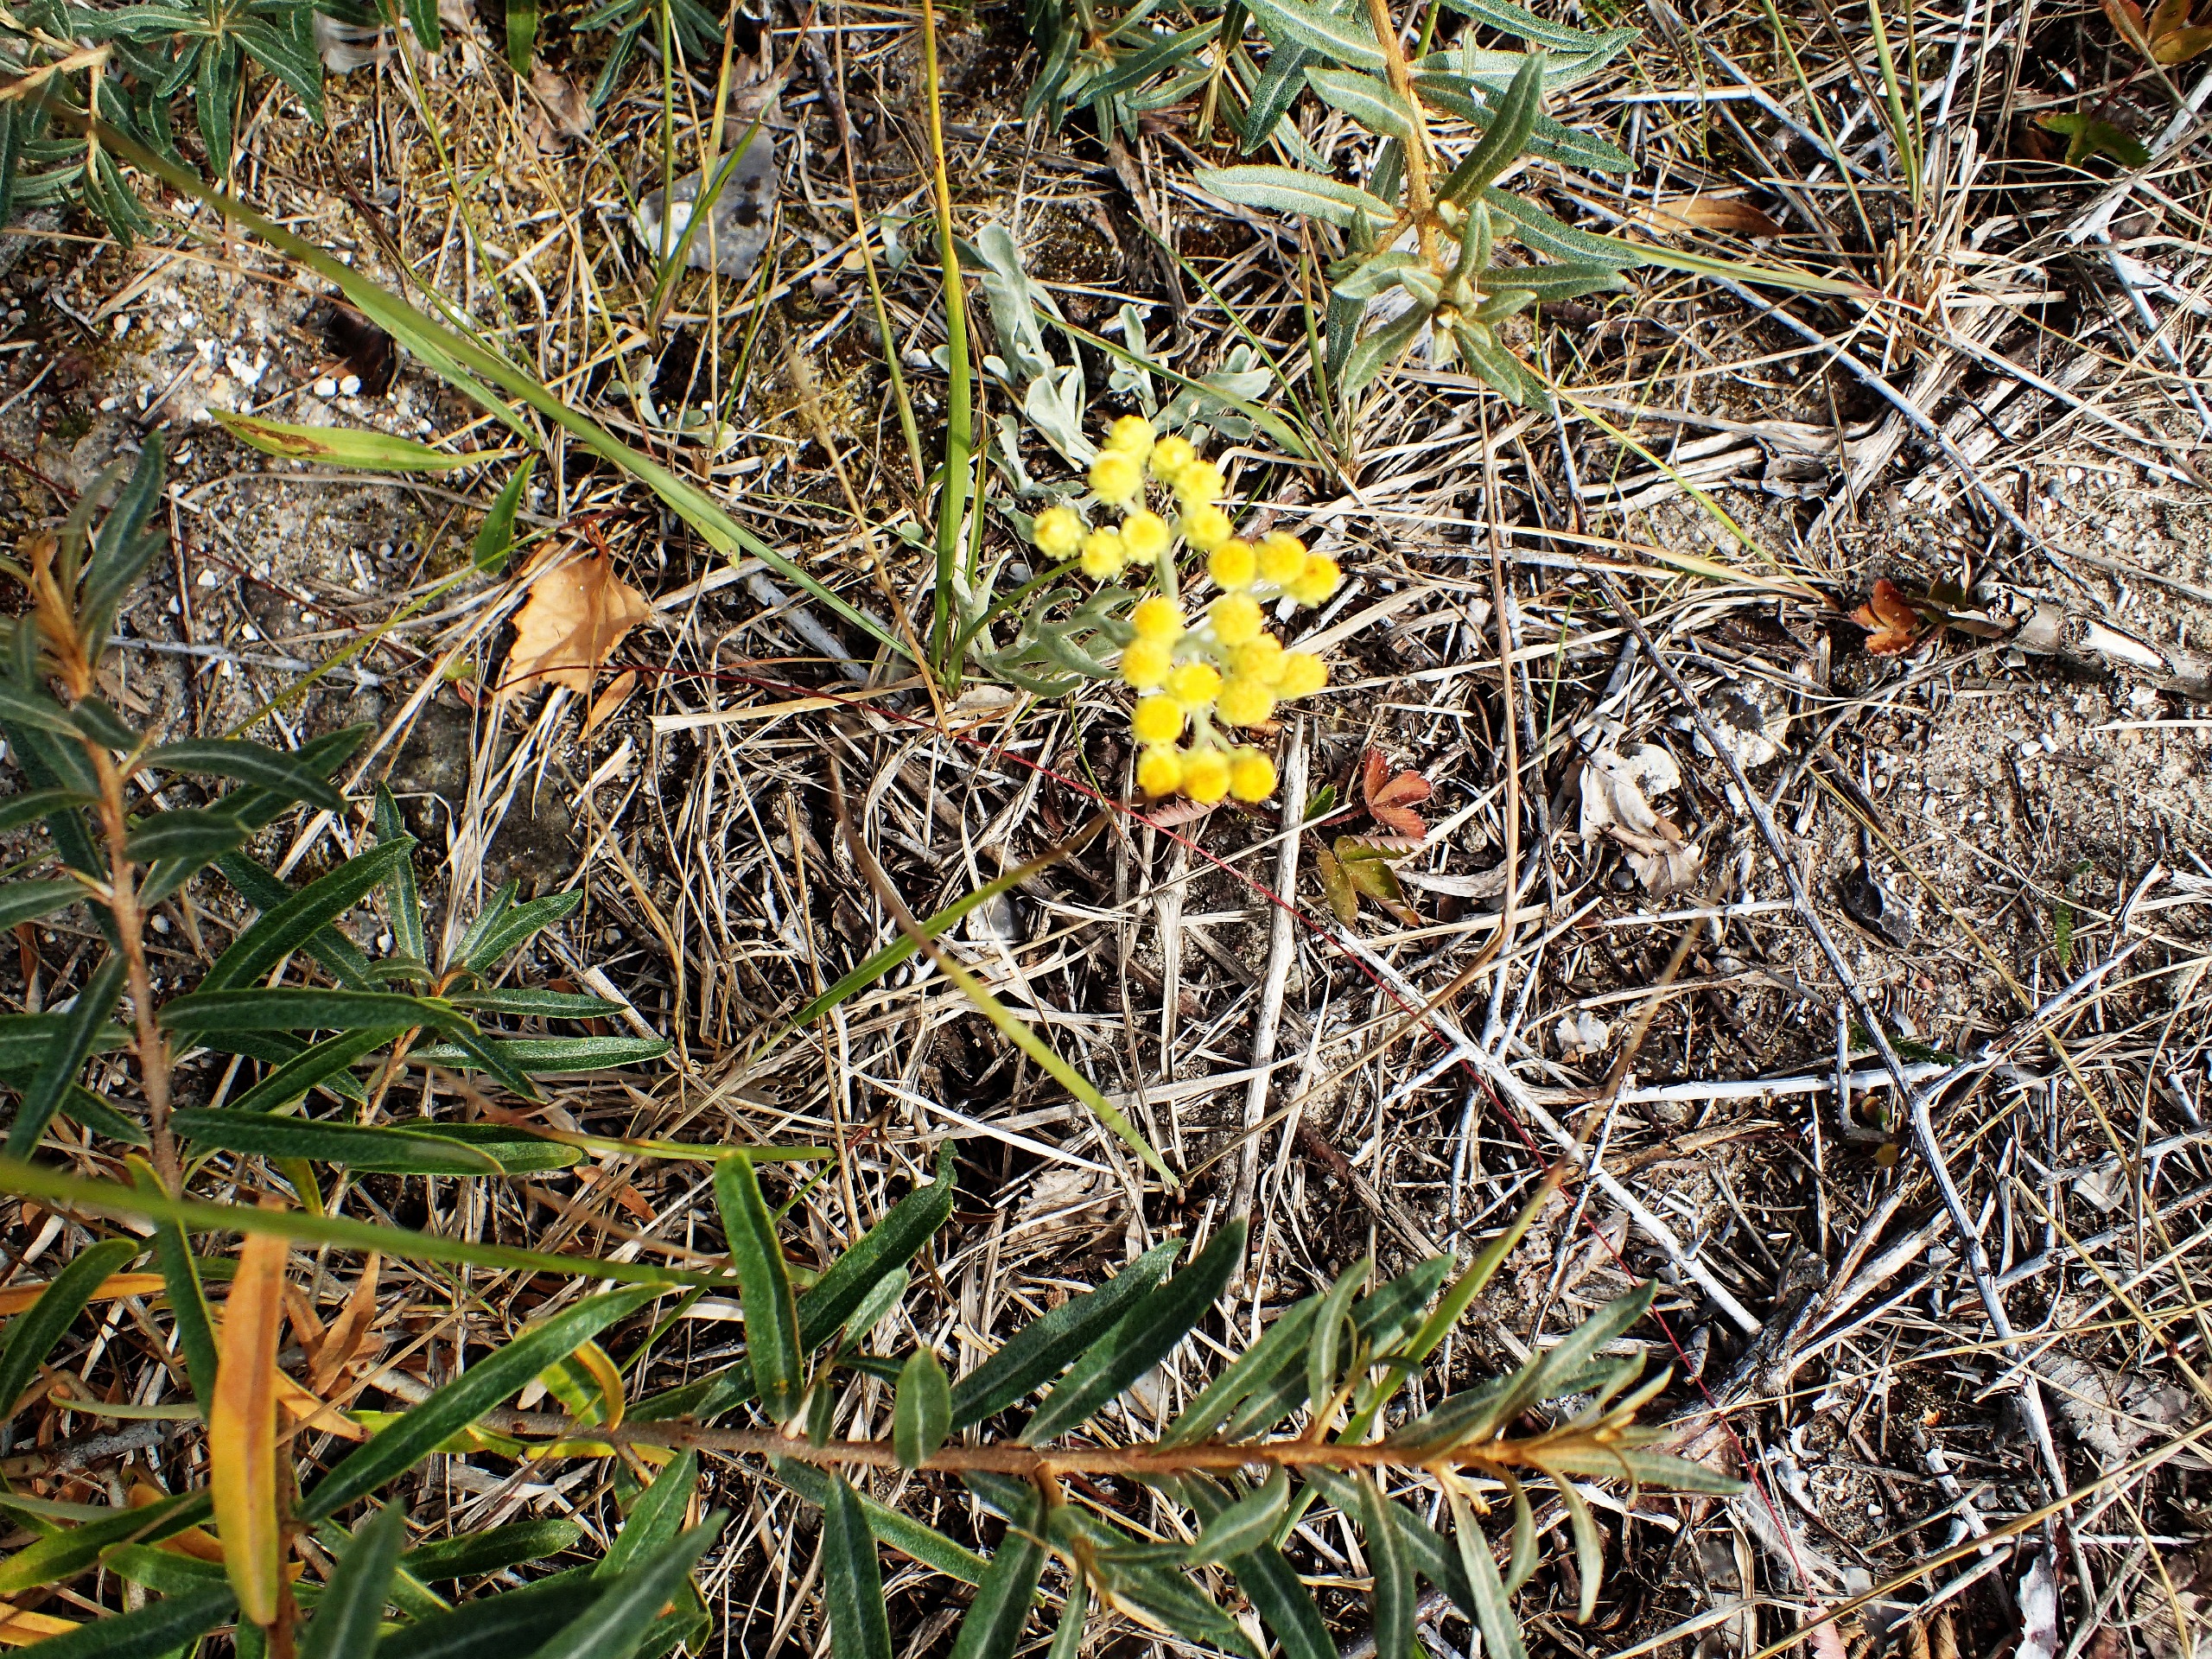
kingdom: Plantae
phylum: Tracheophyta
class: Magnoliopsida
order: Asterales
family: Asteraceae
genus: Helichrysum
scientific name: Helichrysum arenarium
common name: Gul evighedsblomst
